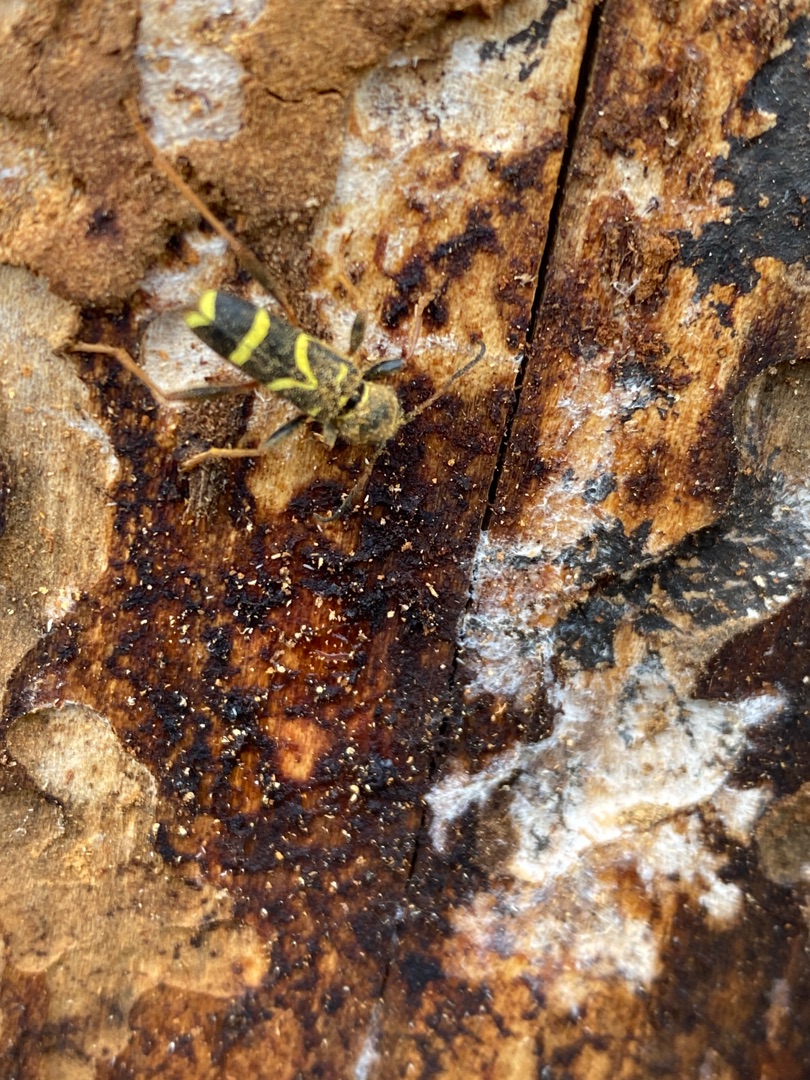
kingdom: Animalia
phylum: Arthropoda
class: Insecta
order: Coleoptera
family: Cerambycidae
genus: Clytus
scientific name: Clytus arietis
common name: Lille hvepsebuk
